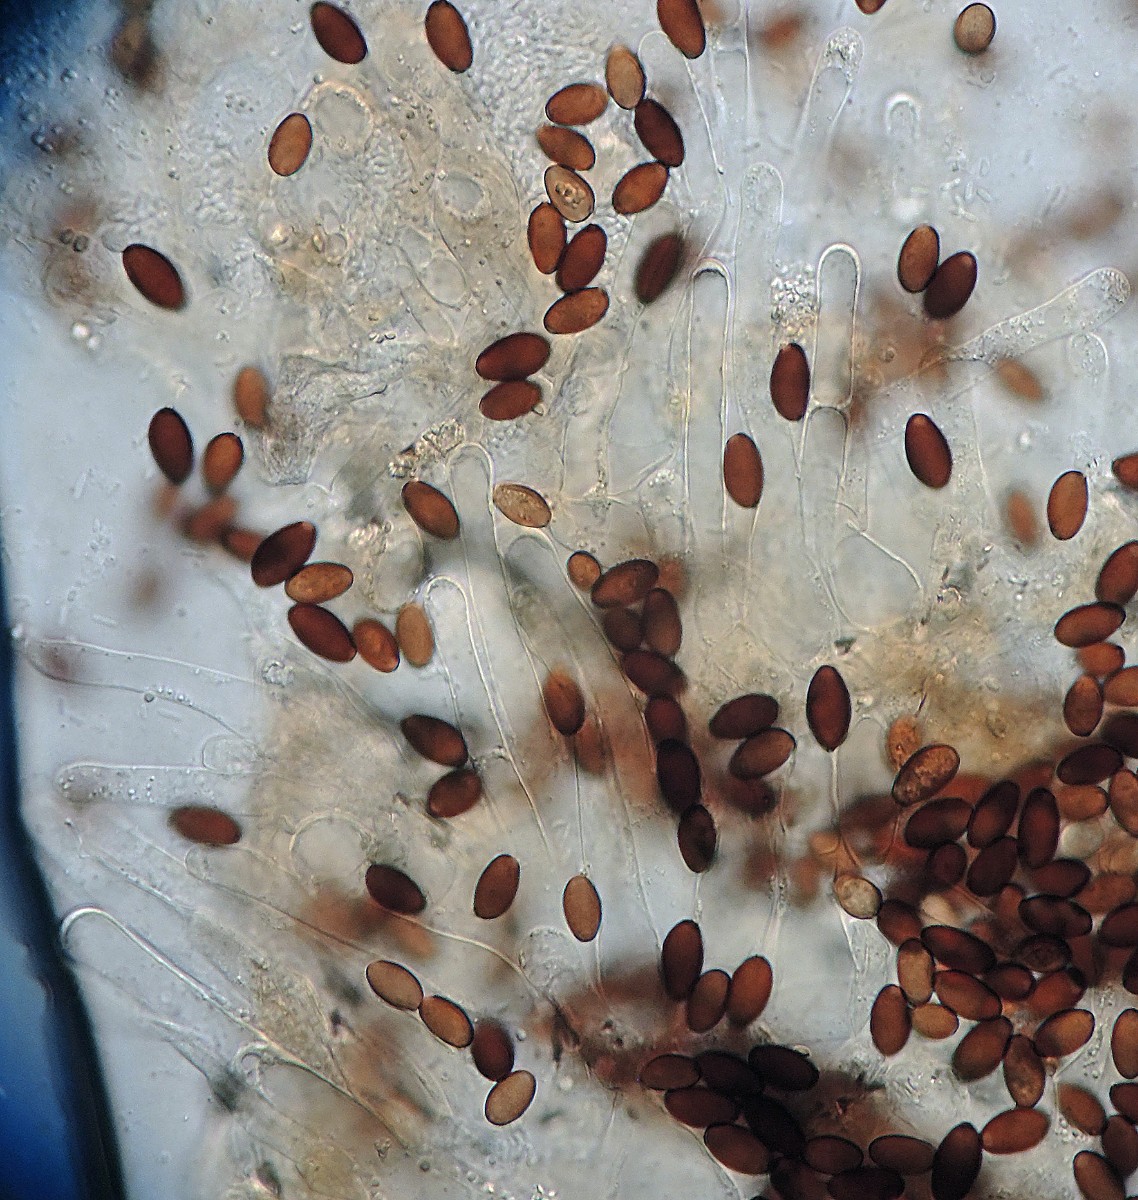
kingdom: Fungi
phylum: Basidiomycota
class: Agaricomycetes
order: Agaricales
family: Psathyrellaceae
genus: Tulosesus
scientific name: Tulosesus subpurpureus
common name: purpur-blækhat
